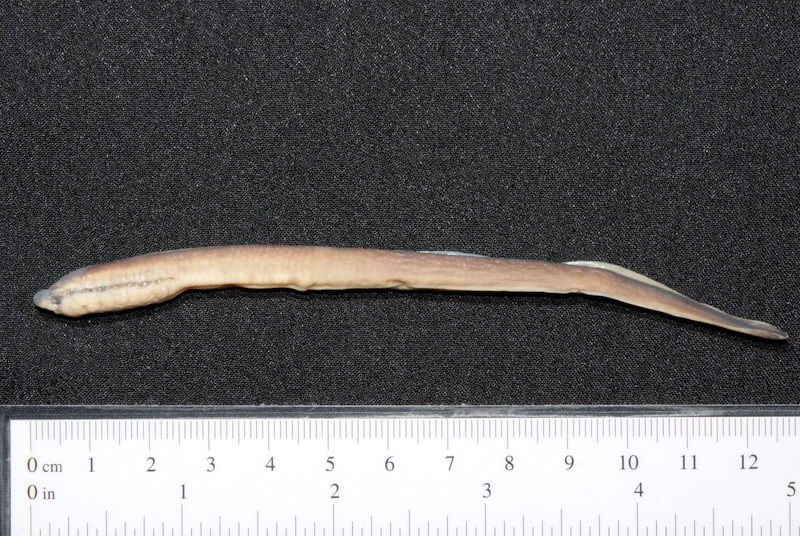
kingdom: Animalia
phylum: Chordata
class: Petromyzonti
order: Petromyzontiformes
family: Petromyzontidae
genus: Eudontomyzon
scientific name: Eudontomyzon danfordi
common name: Carpathian brook lamprey
